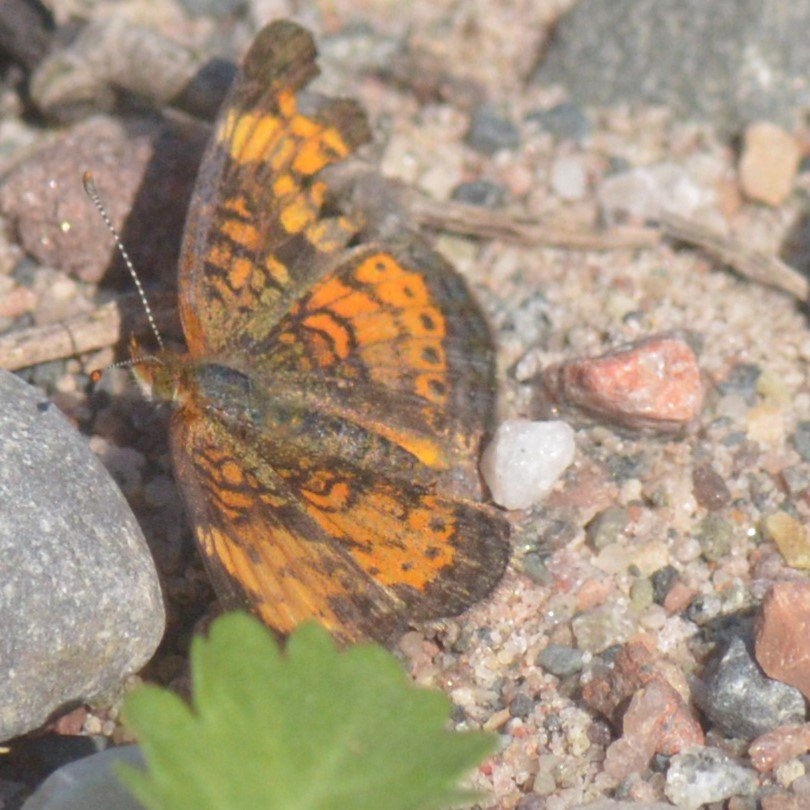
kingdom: Animalia
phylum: Arthropoda
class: Insecta
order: Lepidoptera
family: Nymphalidae
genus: Phyciodes
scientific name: Phyciodes
